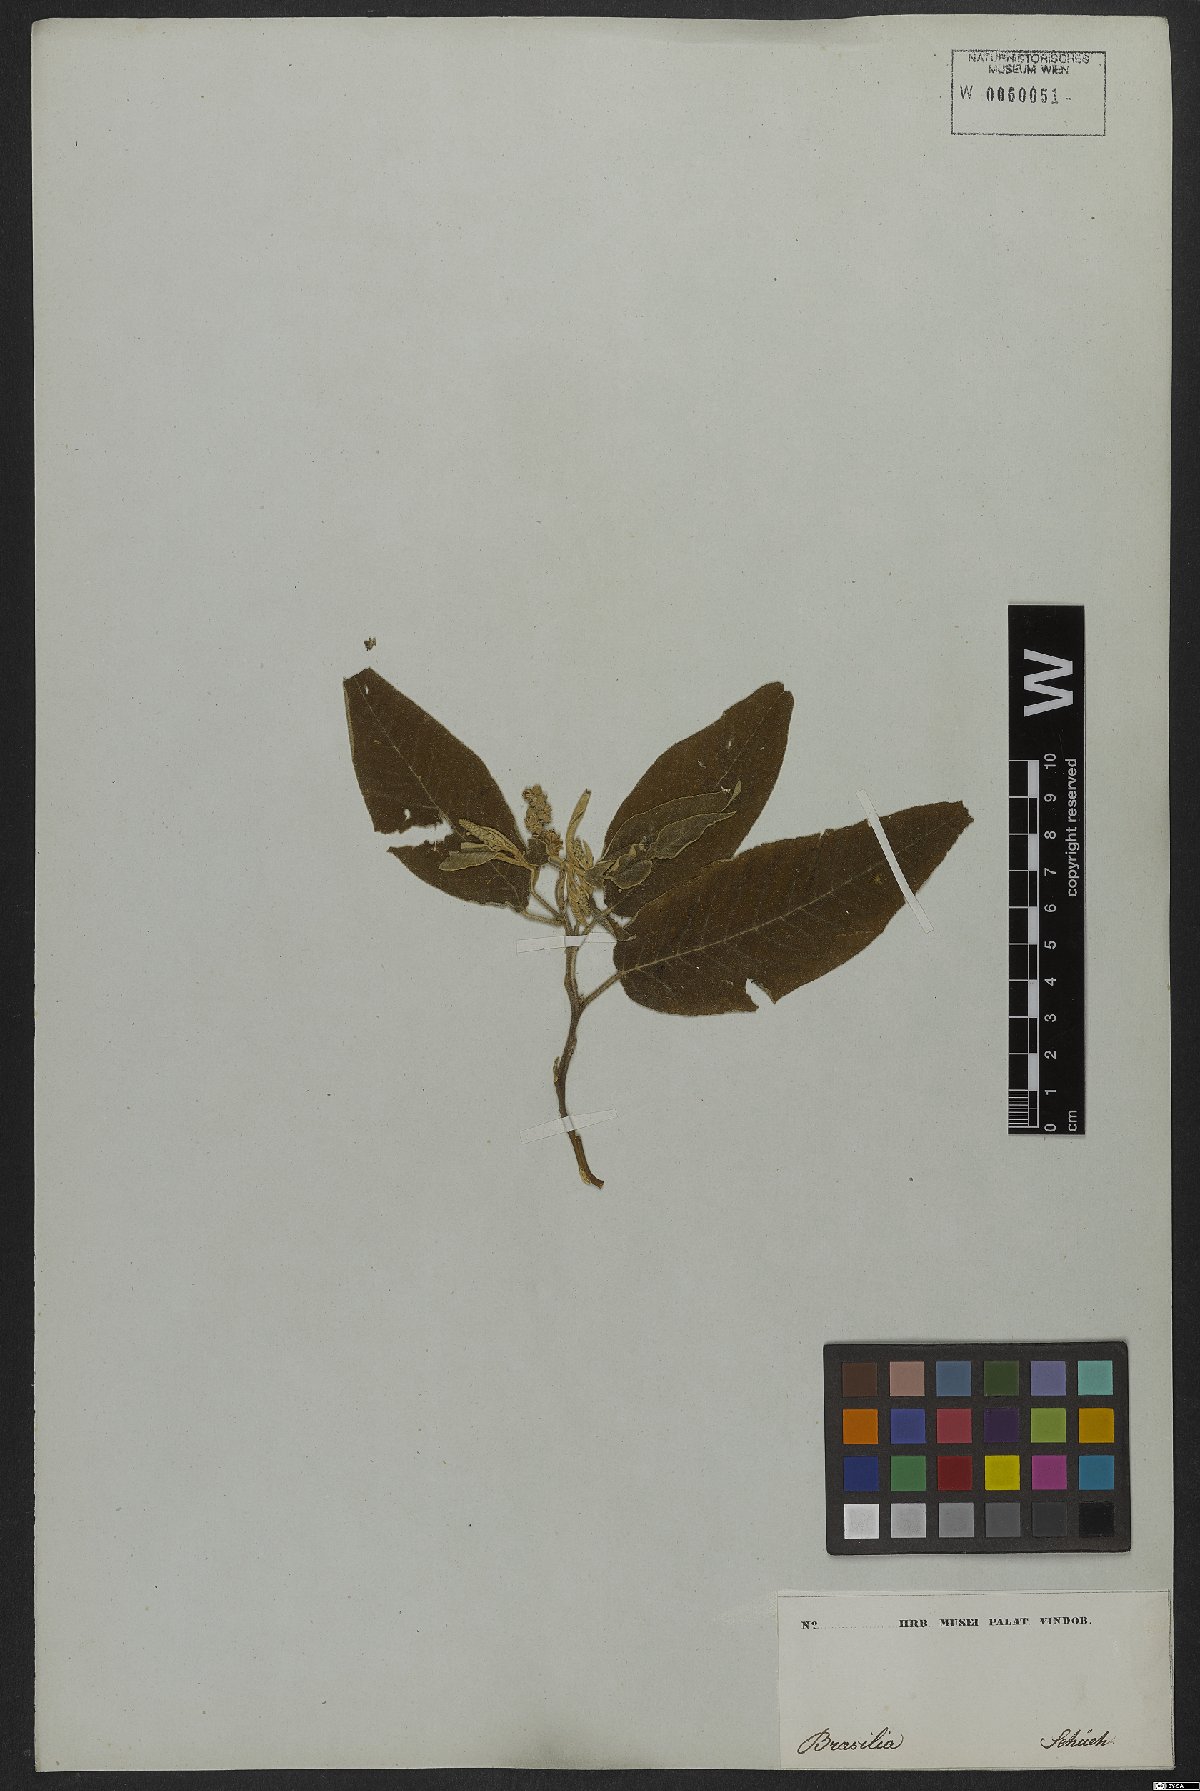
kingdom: Plantae
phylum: Tracheophyta
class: Magnoliopsida
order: Malpighiales
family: Euphorbiaceae
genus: Croton
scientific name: Croton compressus
